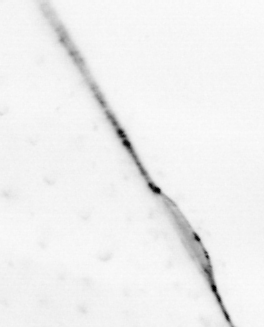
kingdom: Animalia
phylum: Chaetognatha
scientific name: Chaetognatha
